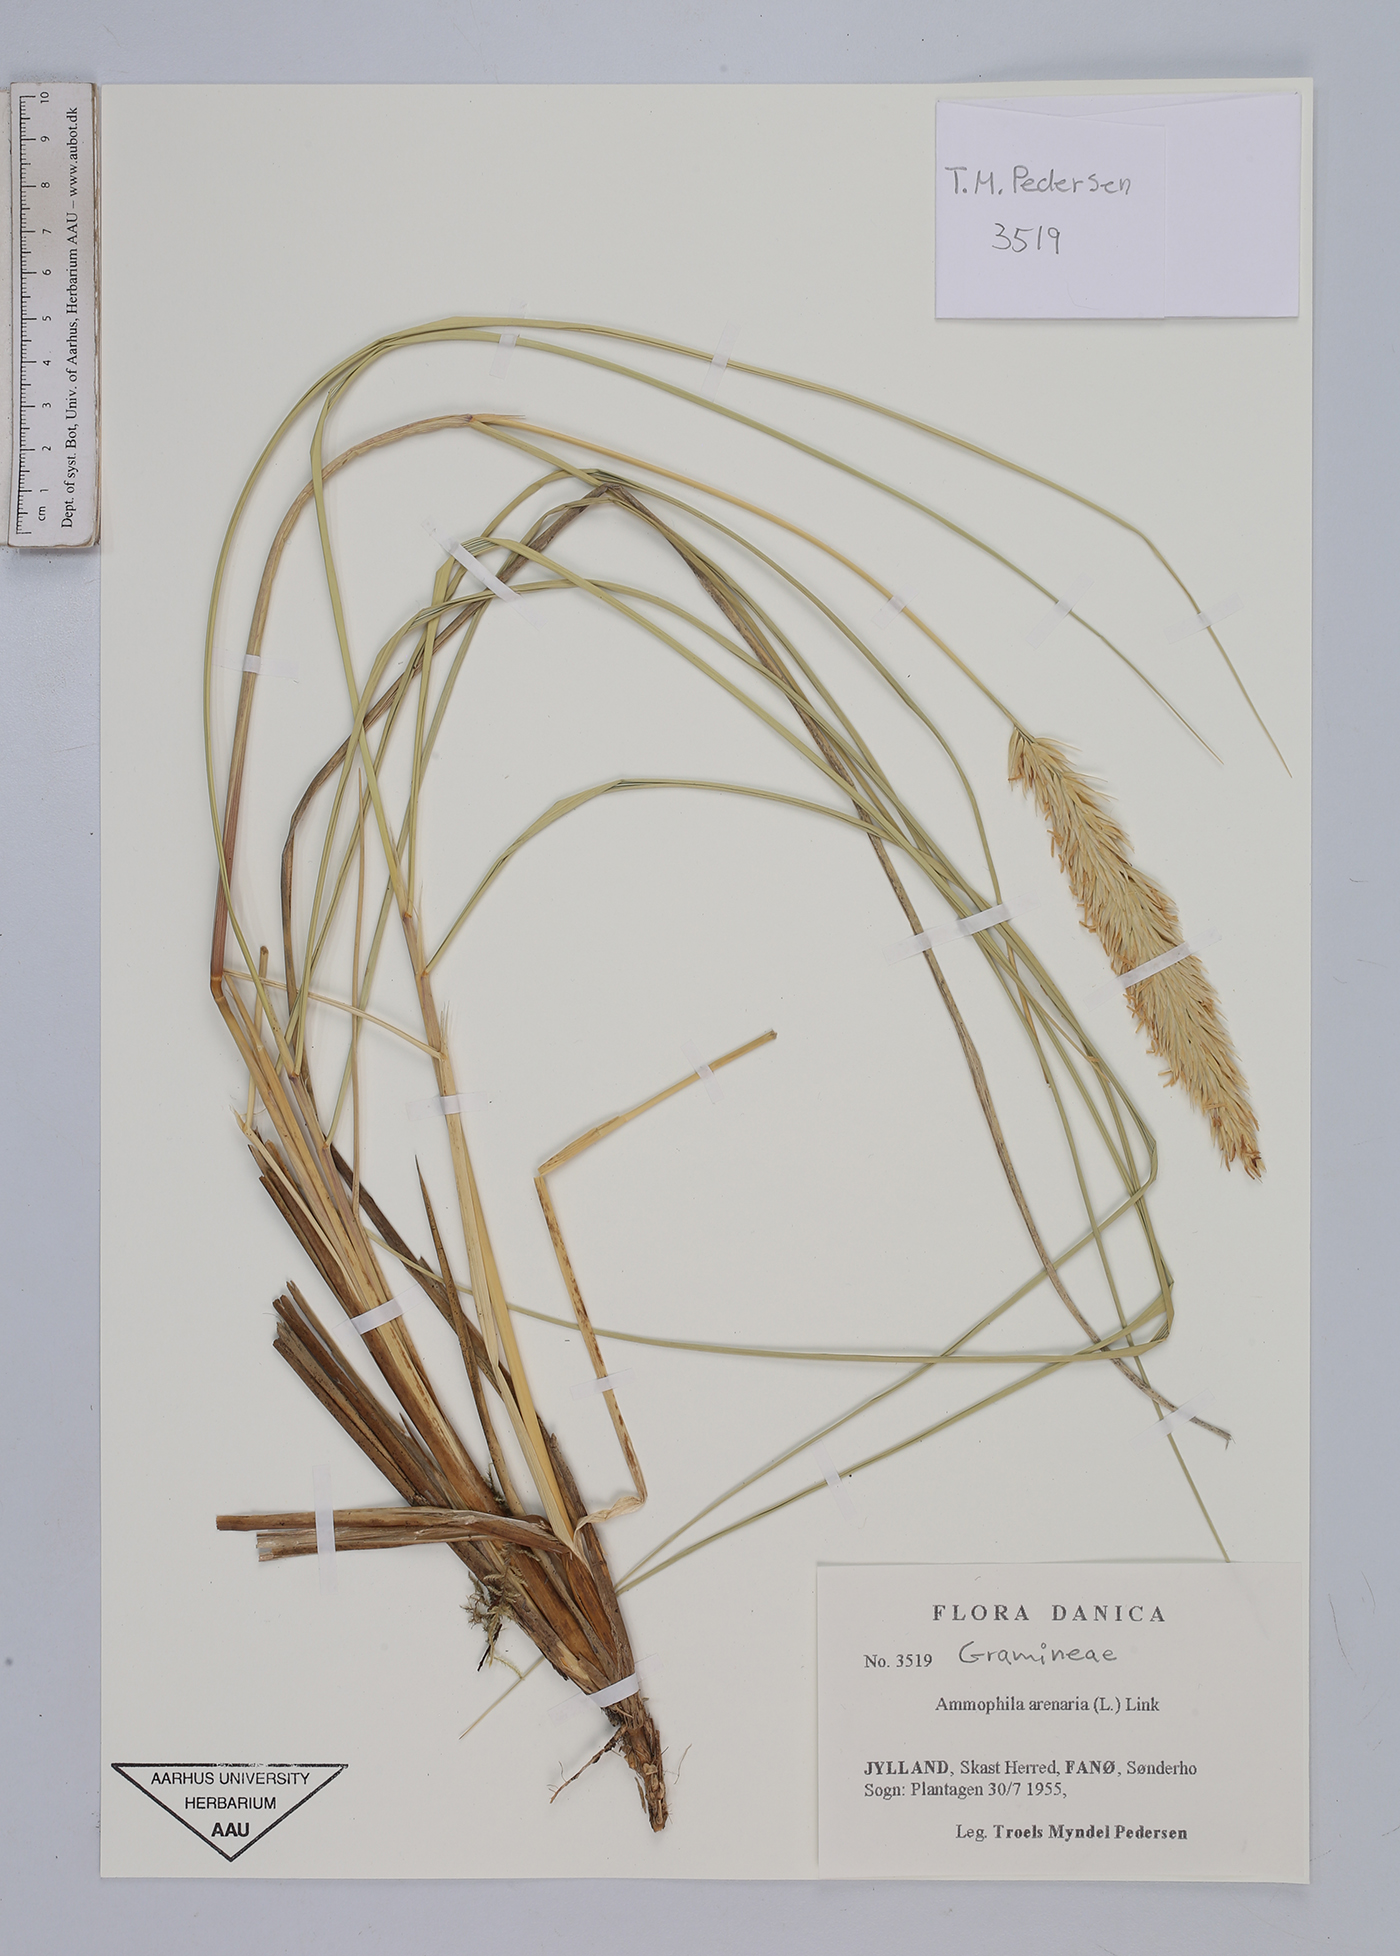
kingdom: Plantae
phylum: Tracheophyta
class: Liliopsida
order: Poales
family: Poaceae
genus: Calamagrostis
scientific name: Calamagrostis arenaria
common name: European beachgrass
